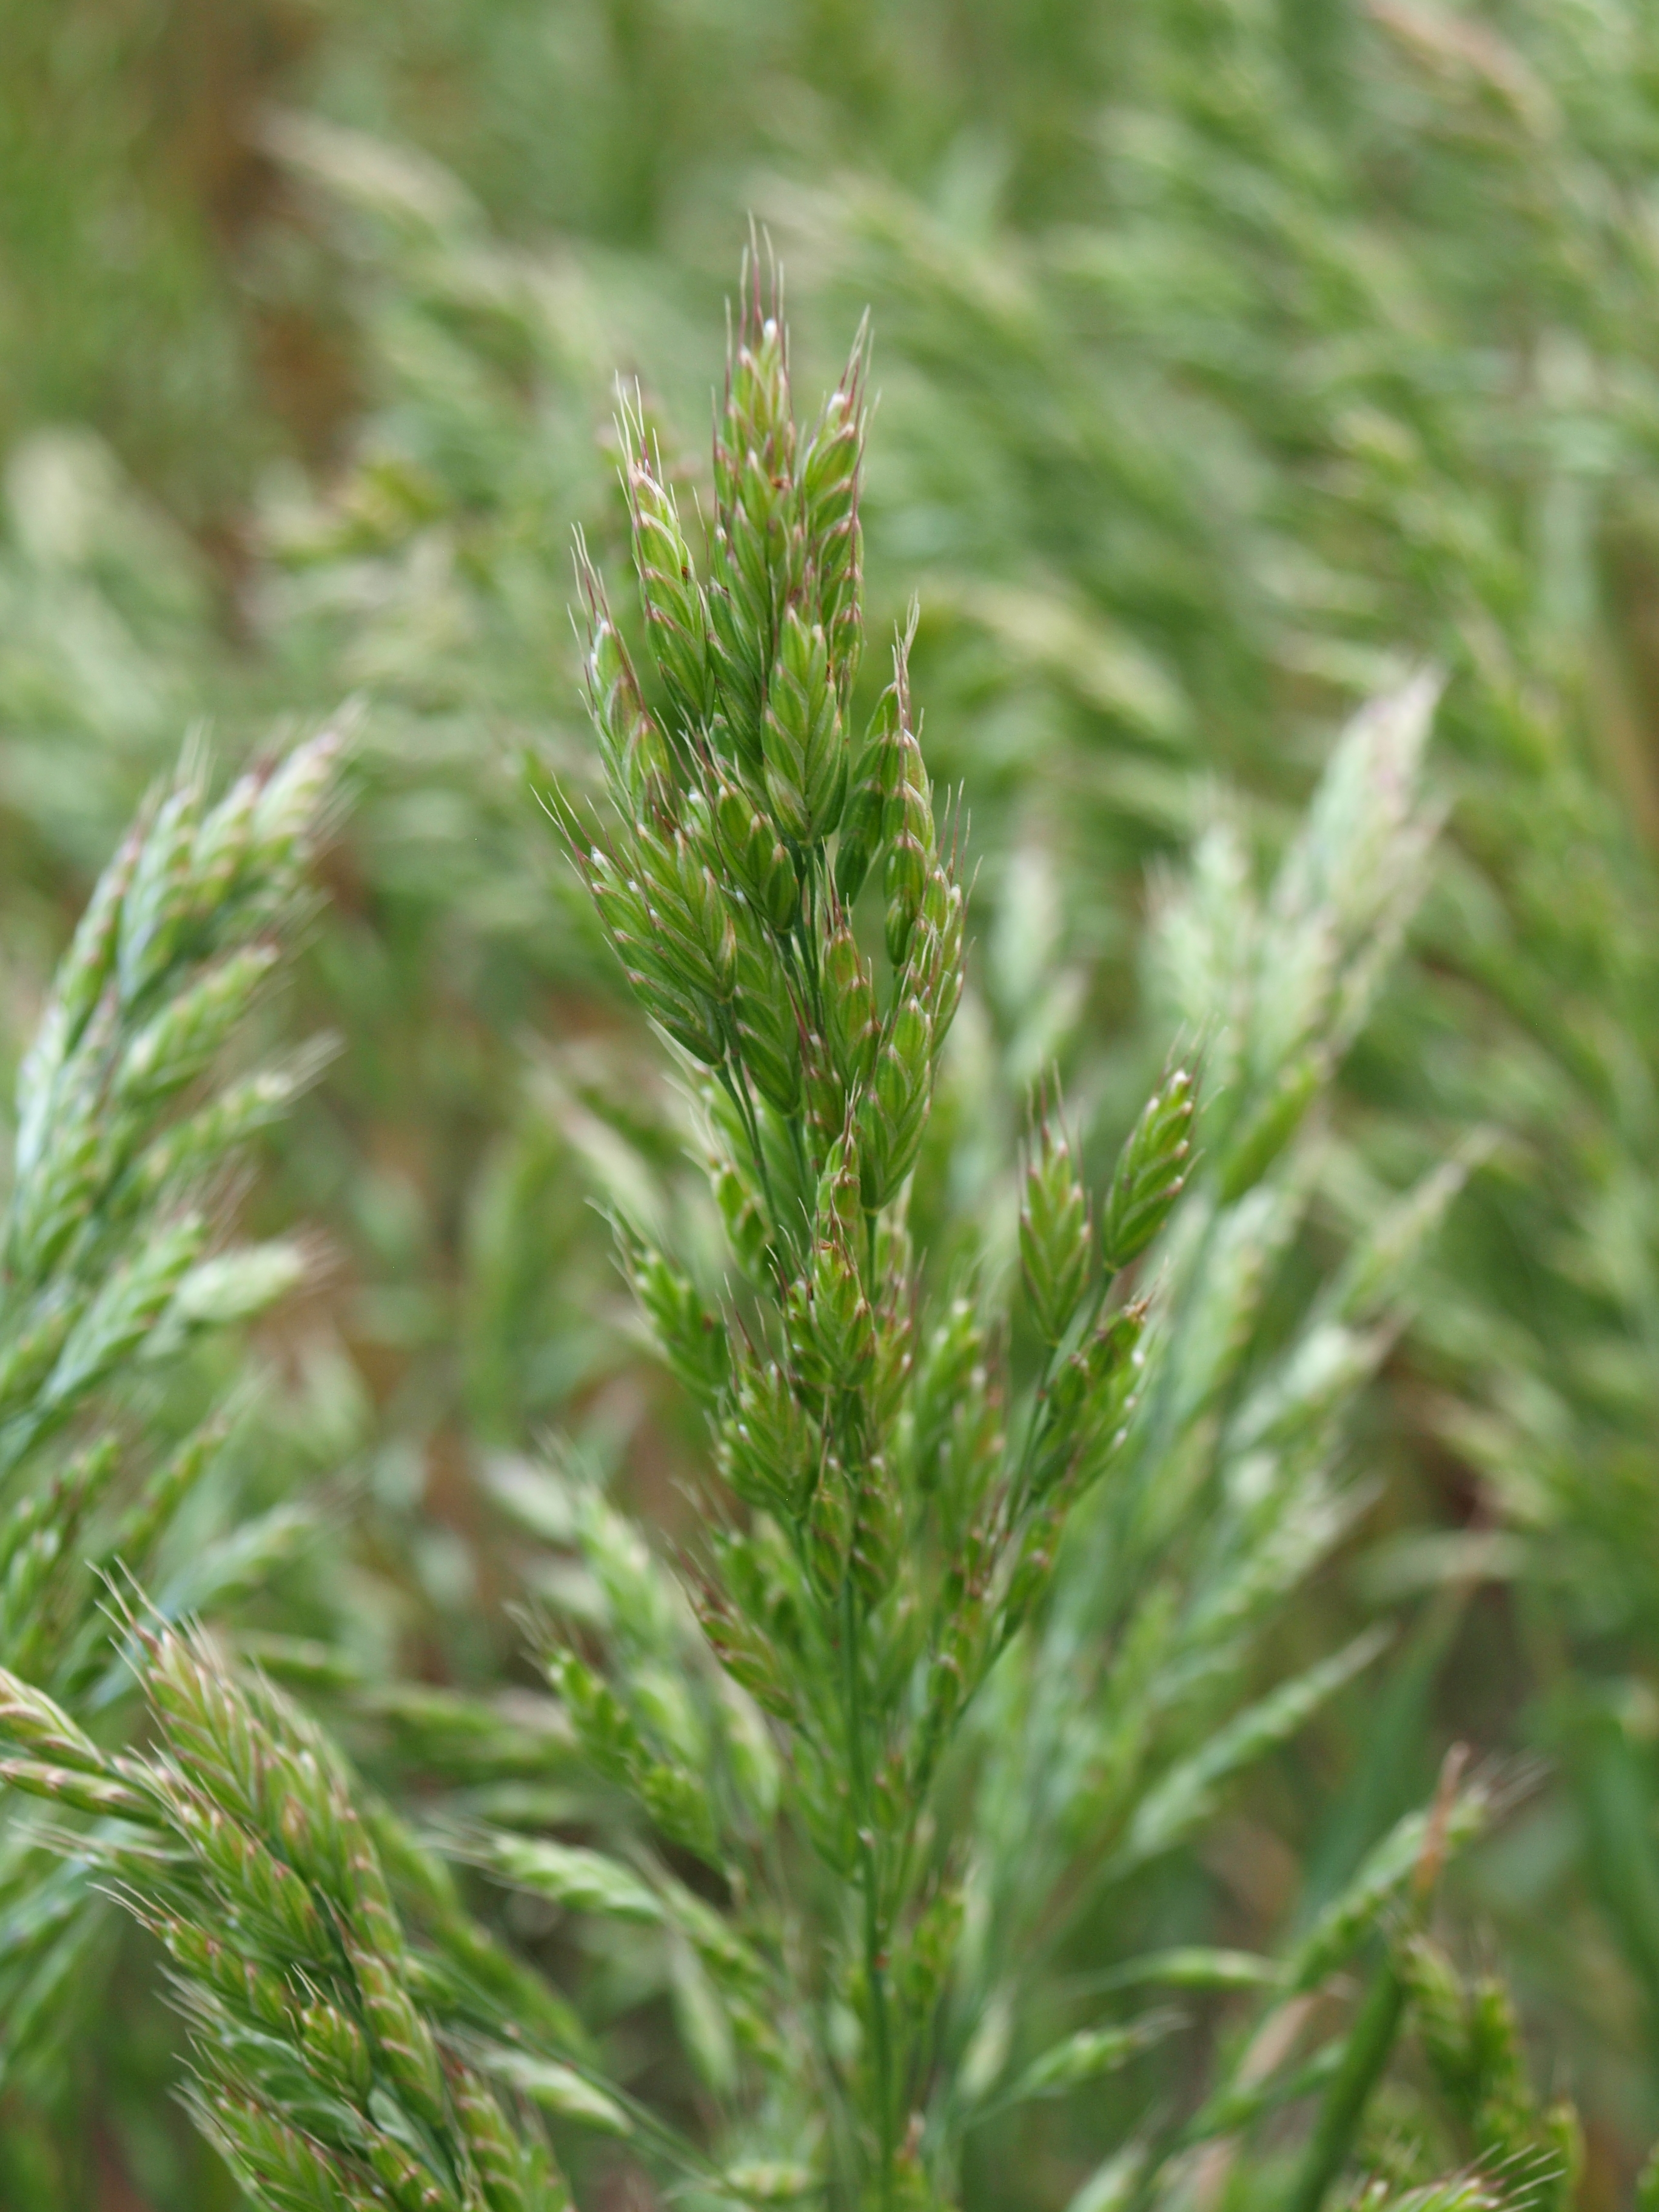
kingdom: Plantae
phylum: Tracheophyta
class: Liliopsida
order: Poales
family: Poaceae
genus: Bromus
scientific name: Bromus pseudosecalinus
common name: Smith's brome
